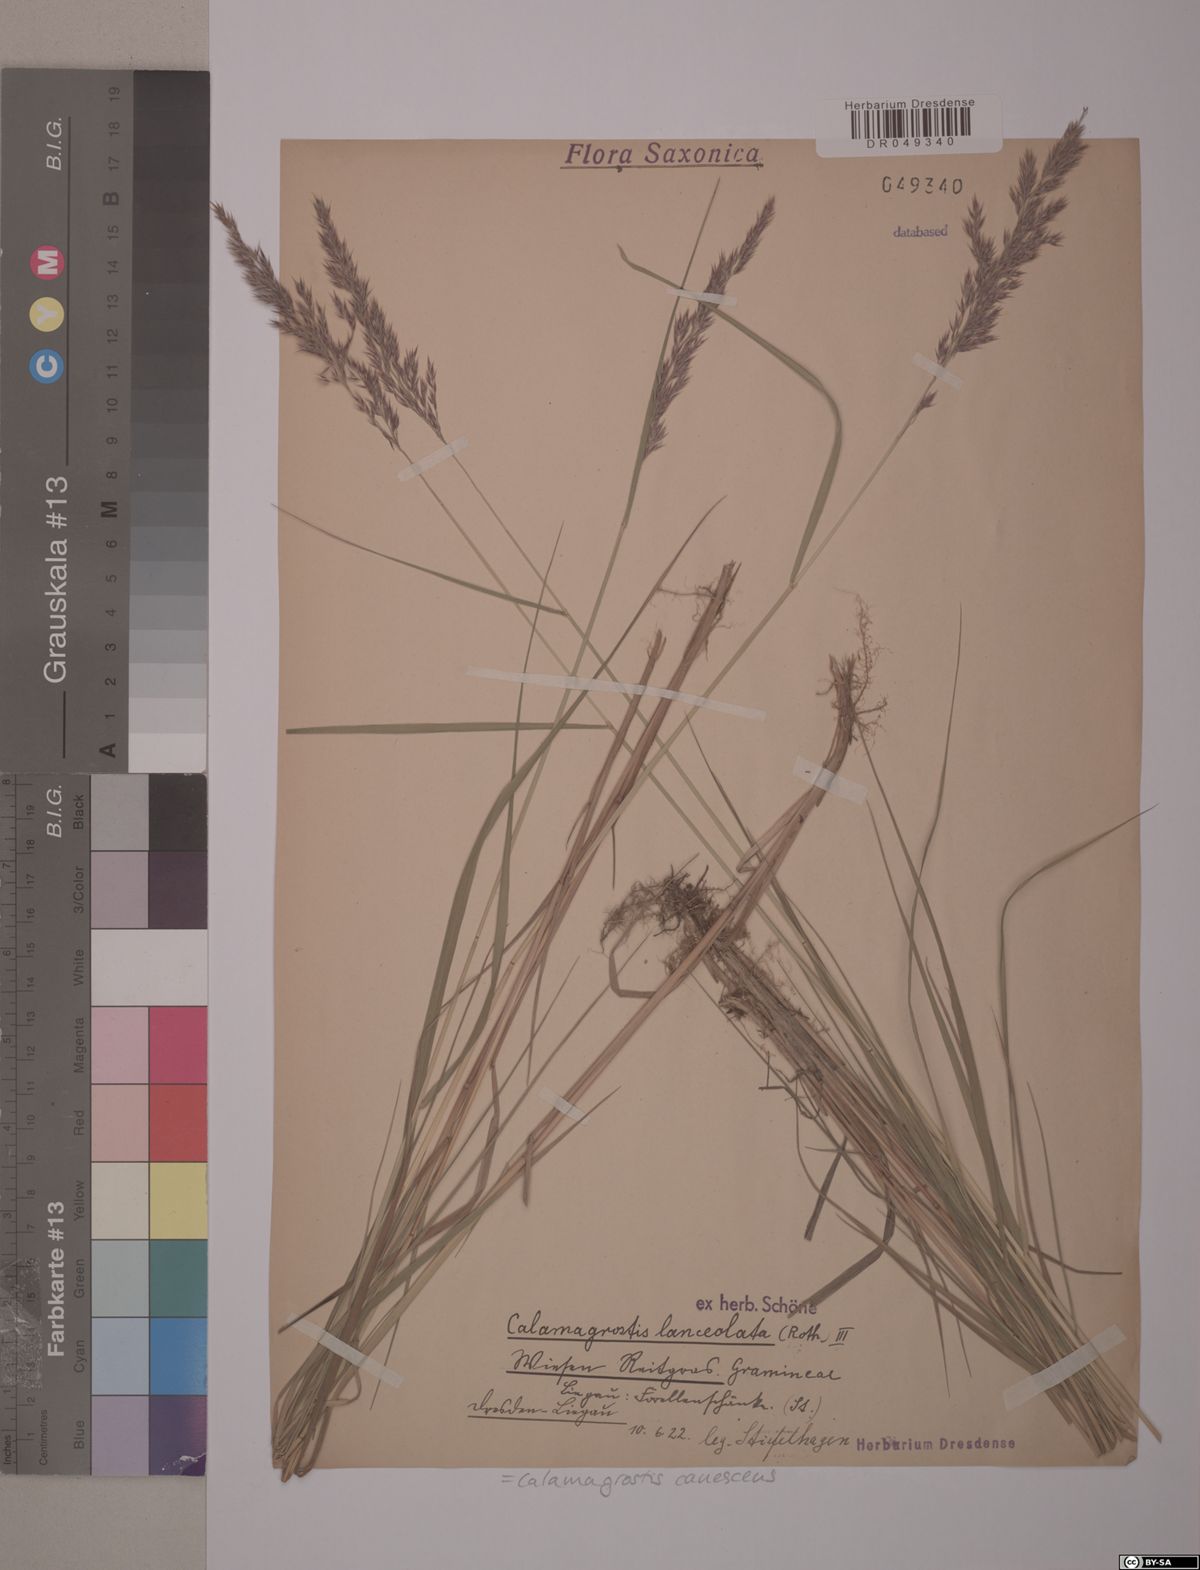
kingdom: Plantae
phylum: Tracheophyta
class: Liliopsida
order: Poales
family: Poaceae
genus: Calamagrostis
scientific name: Calamagrostis canescens
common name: Purple small-reed
